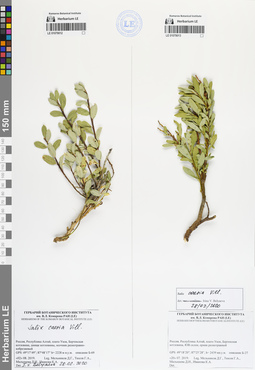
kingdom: Plantae
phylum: Tracheophyta
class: Magnoliopsida
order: Malpighiales
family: Salicaceae
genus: Salix
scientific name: Salix caesia
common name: Blue willow
